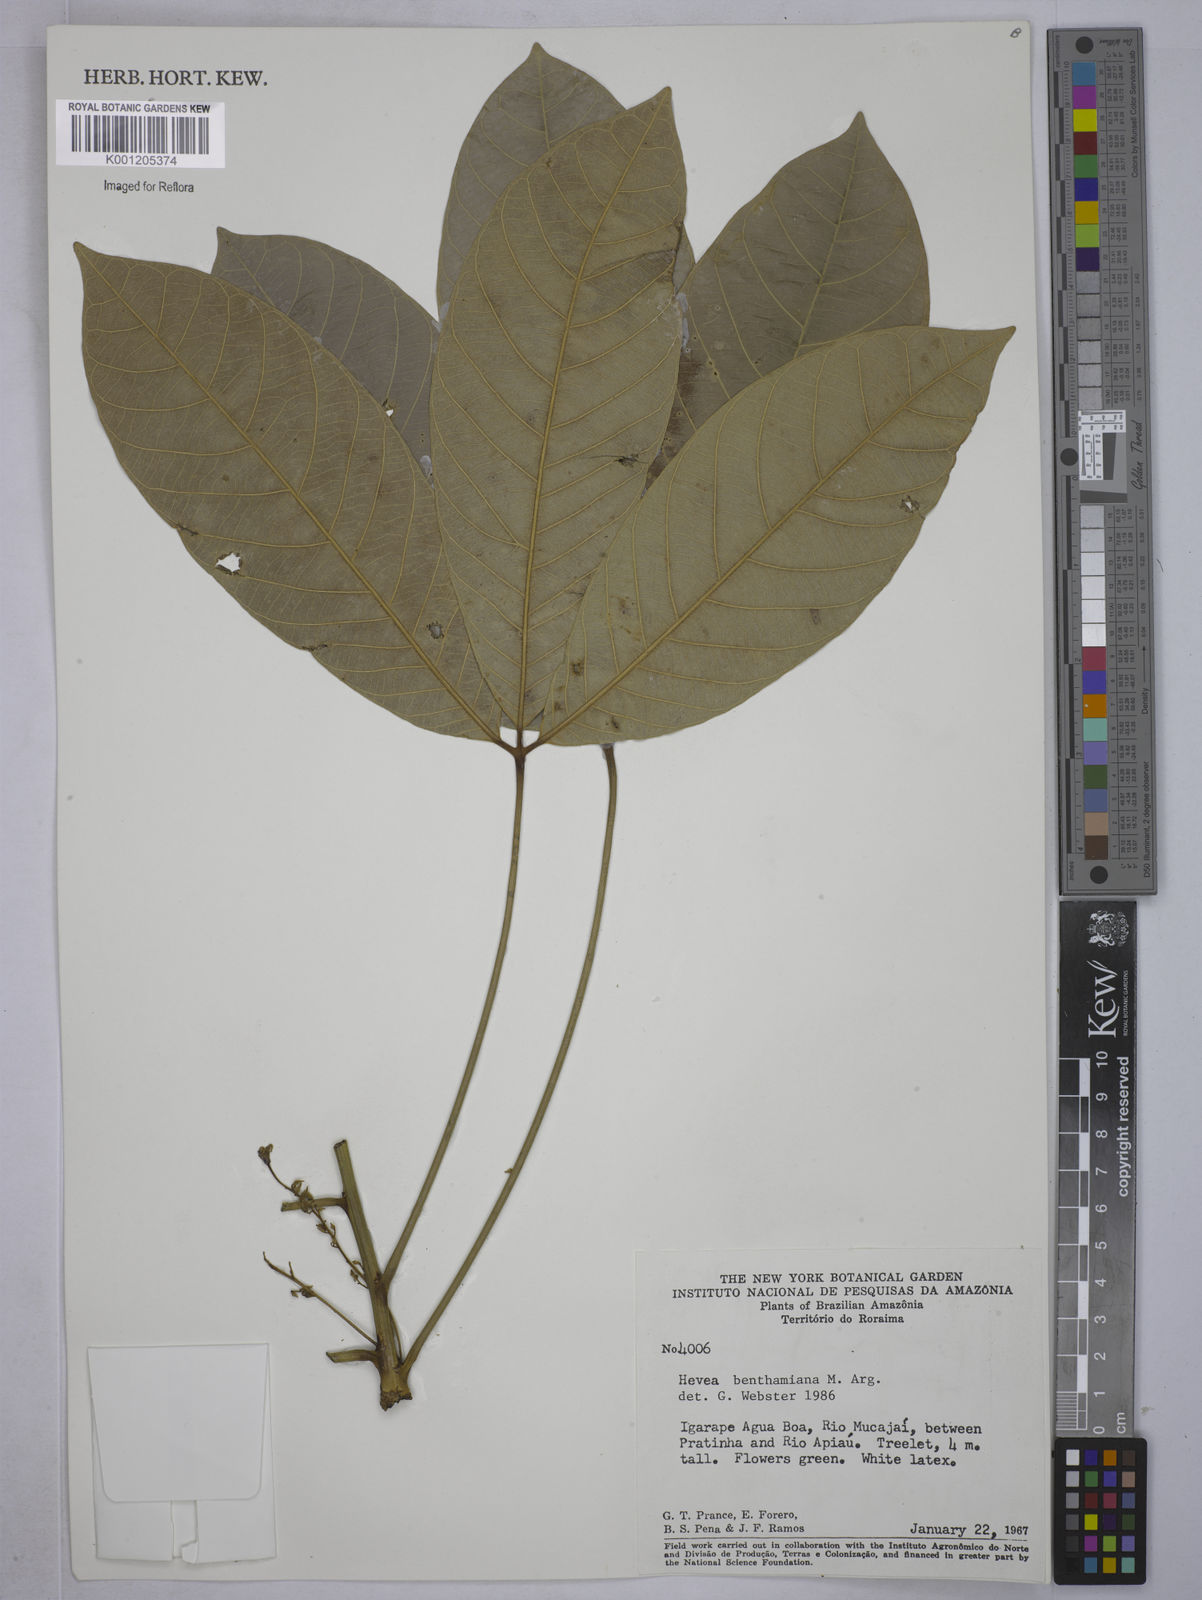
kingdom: Plantae
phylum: Tracheophyta
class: Magnoliopsida
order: Malpighiales
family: Euphorbiaceae
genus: Hevea
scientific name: Hevea
